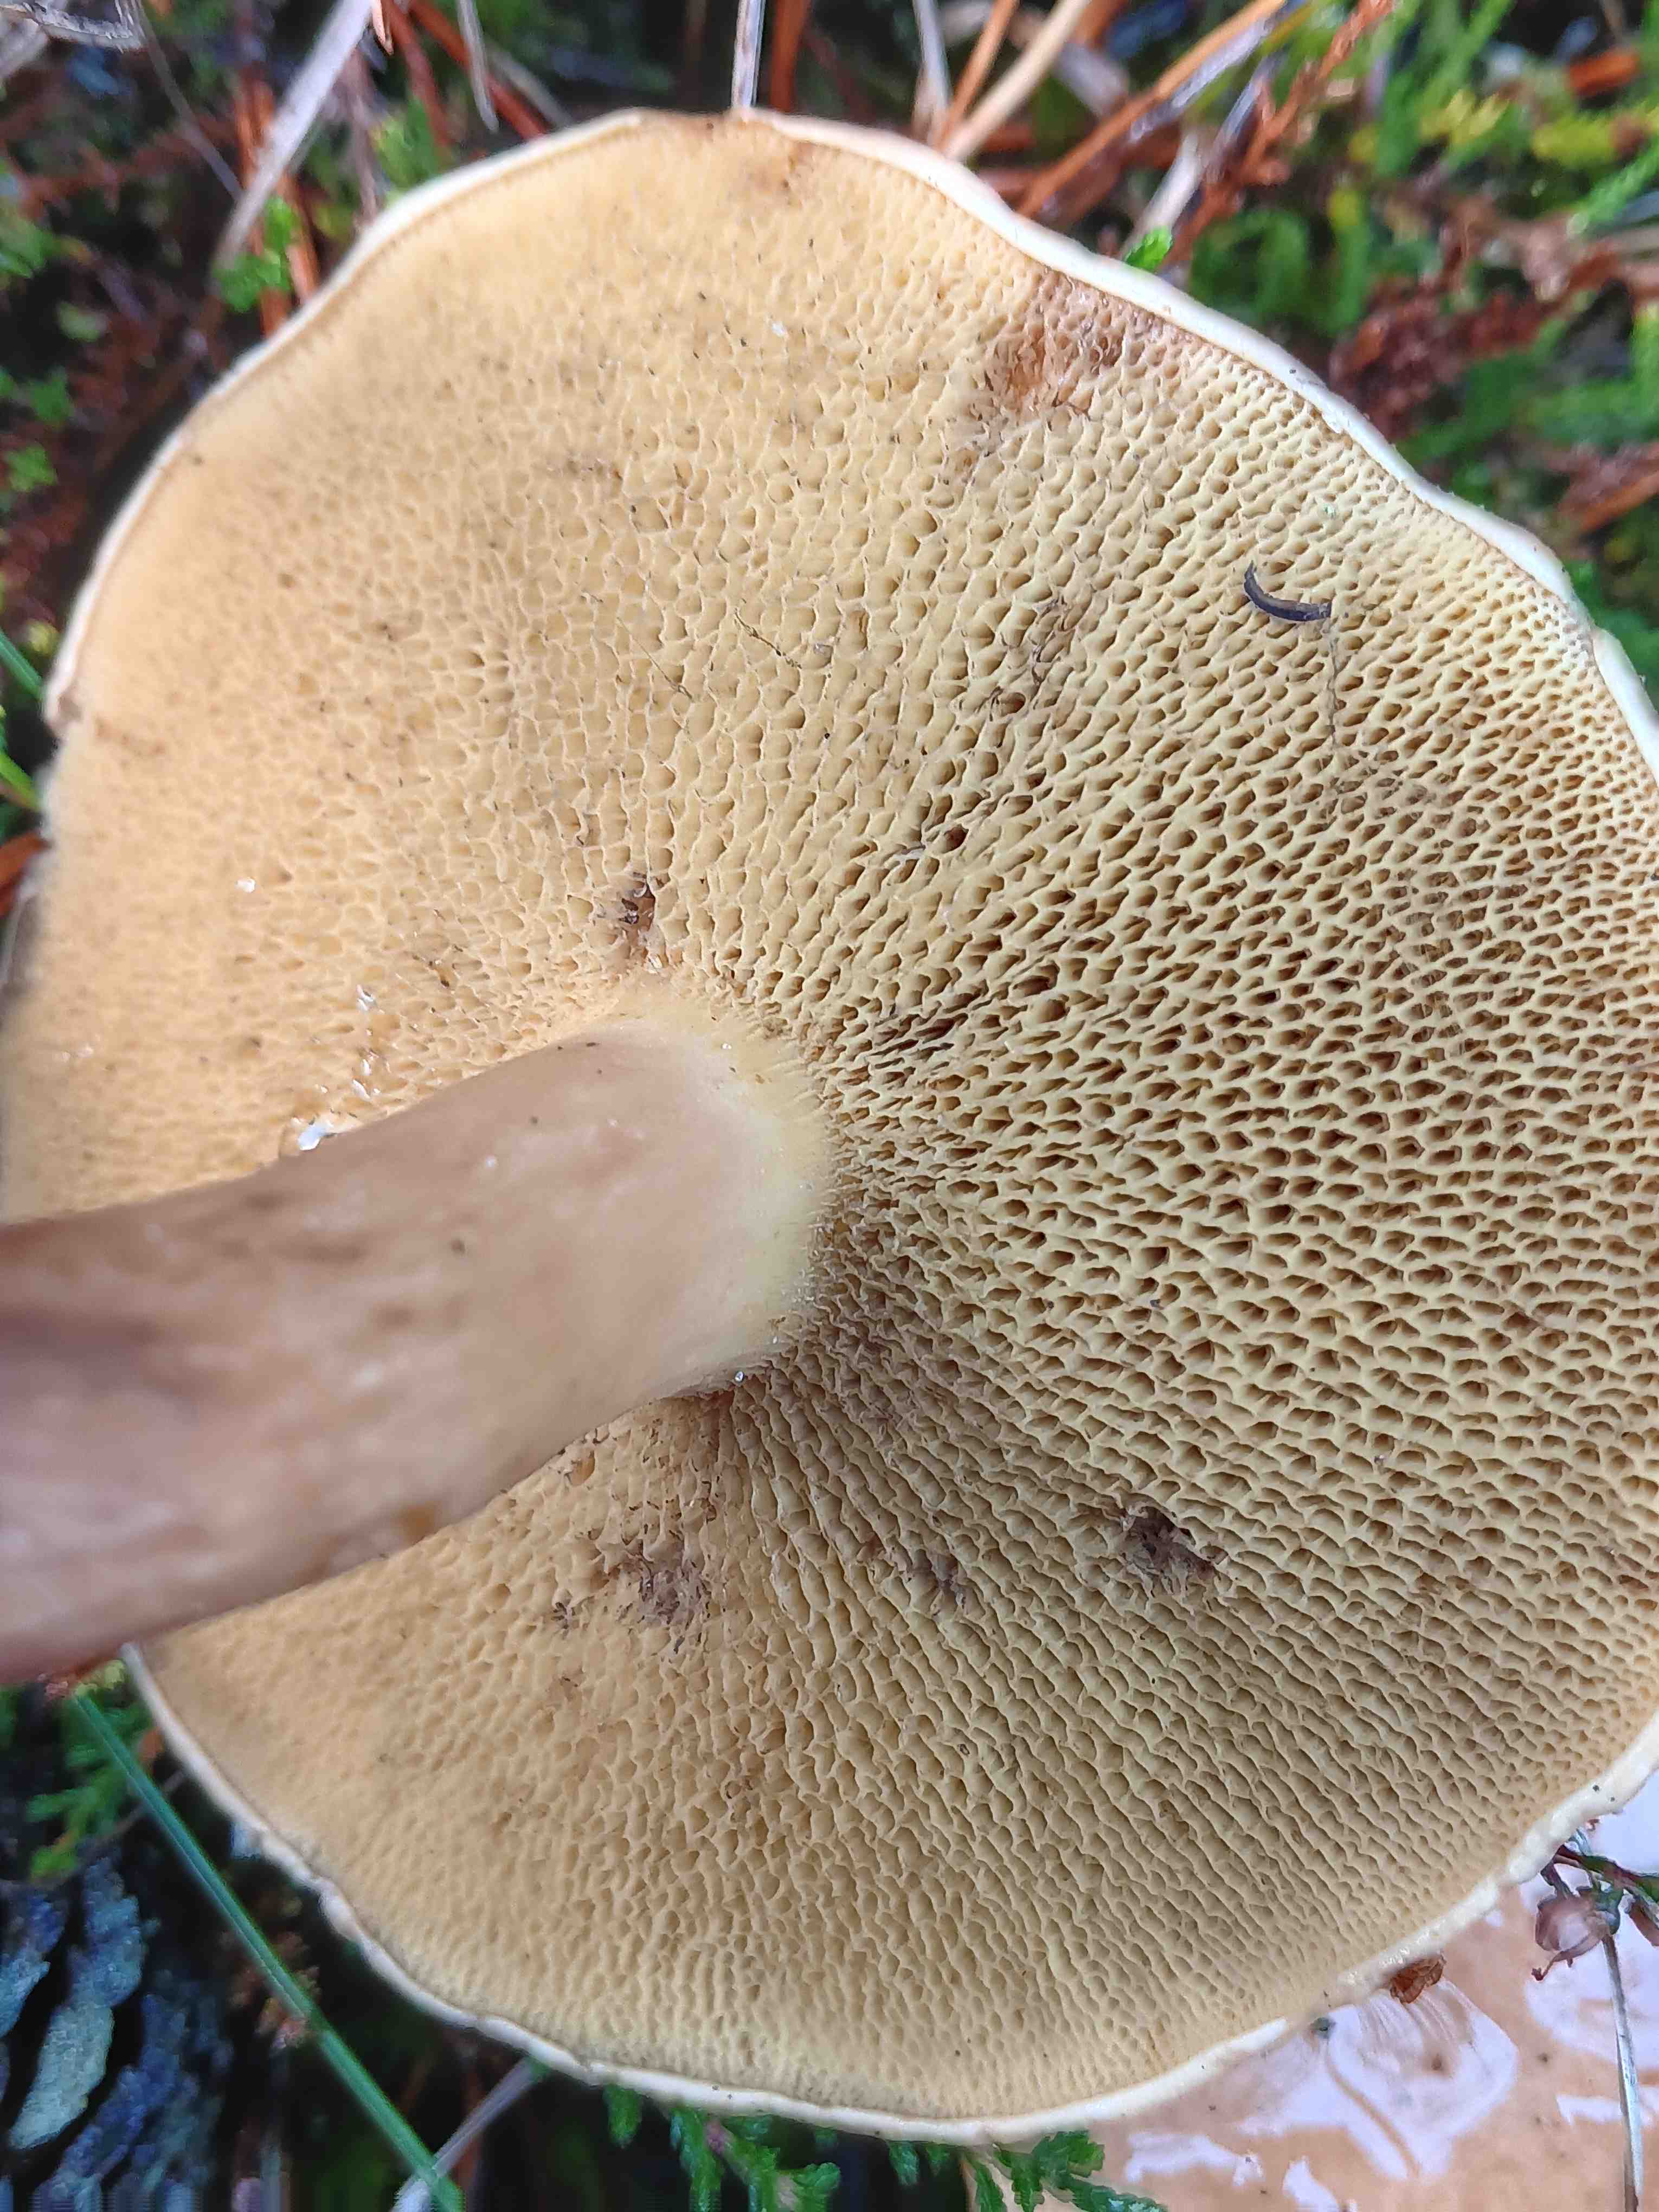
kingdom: Fungi
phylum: Basidiomycota
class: Agaricomycetes
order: Boletales
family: Suillaceae
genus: Suillus
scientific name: Suillus bovinus
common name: grovporet slimrørhat
